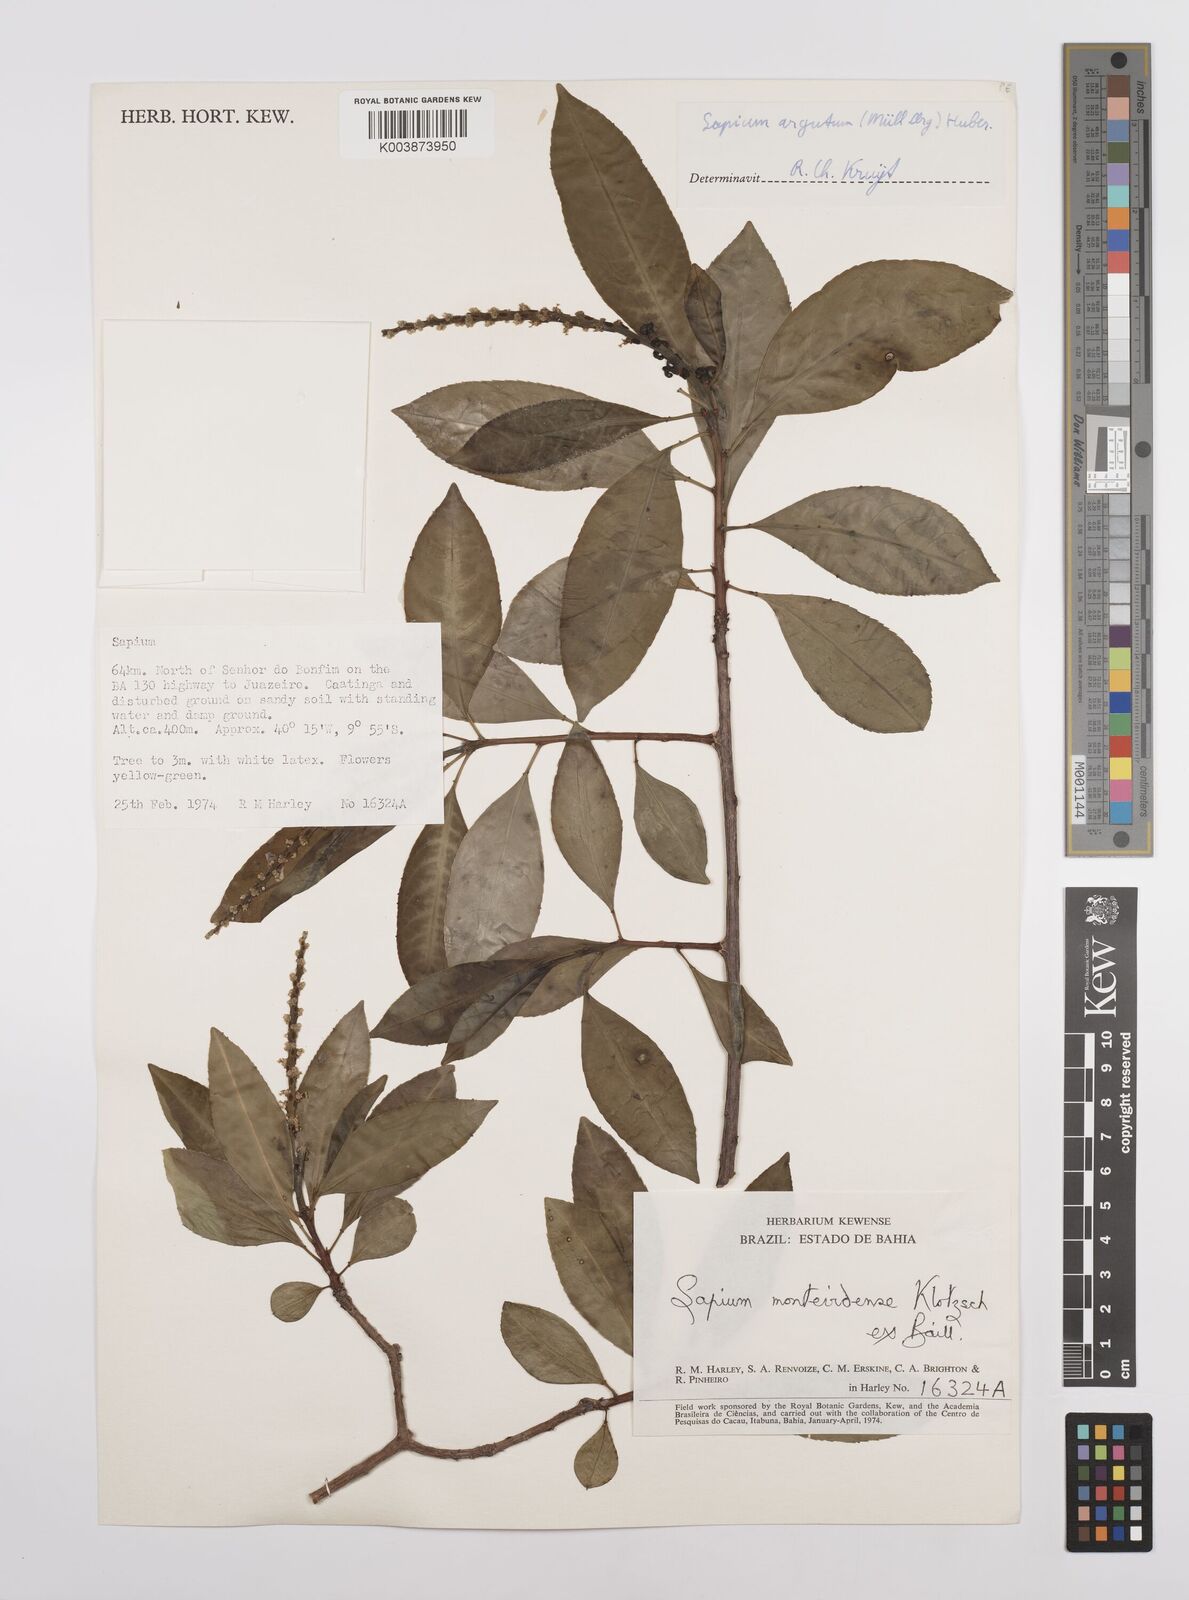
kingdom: Plantae
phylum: Tracheophyta
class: Magnoliopsida
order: Malpighiales
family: Euphorbiaceae
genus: Sapium
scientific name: Sapium glandulosum
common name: Milktree
